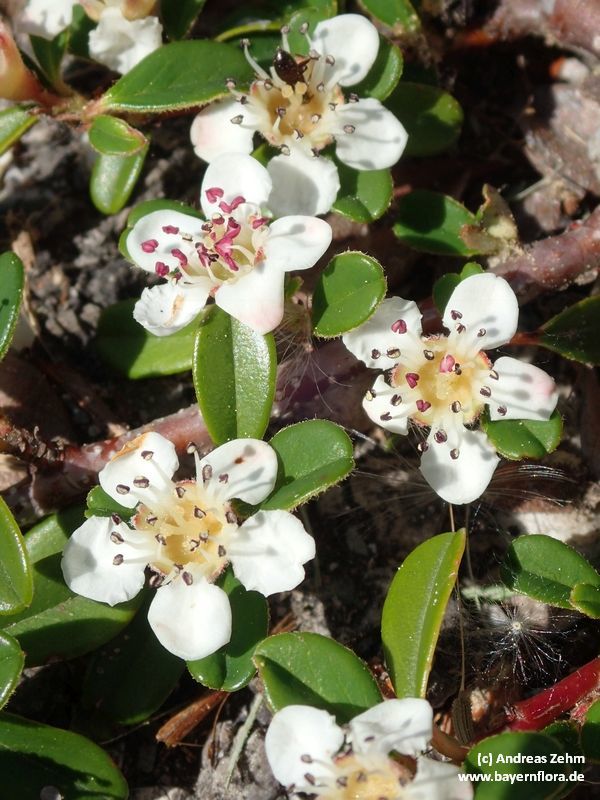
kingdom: Plantae
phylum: Tracheophyta
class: Magnoliopsida
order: Rosales
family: Rosaceae
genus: Cotoneaster
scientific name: Cotoneaster dammeri
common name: Bearberry cotoneaster
